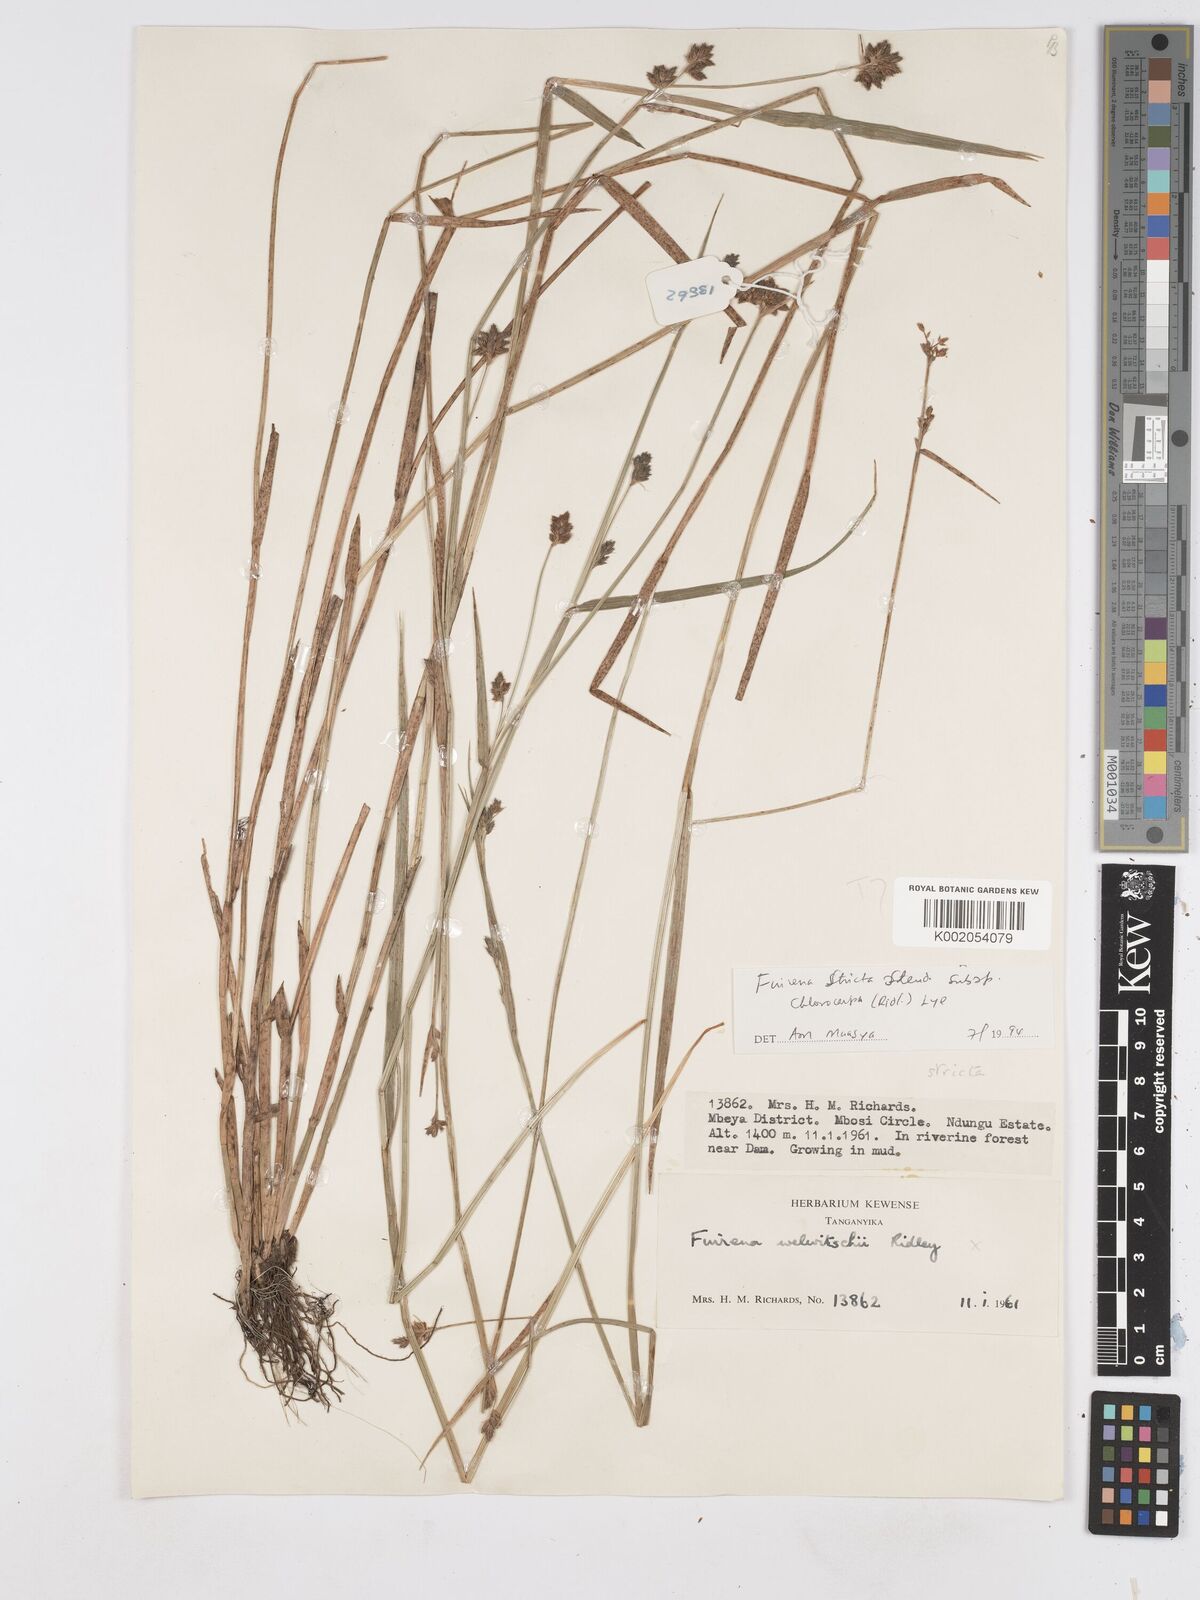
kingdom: Plantae
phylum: Tracheophyta
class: Liliopsida
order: Poales
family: Cyperaceae
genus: Fuirena
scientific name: Fuirena stricta
